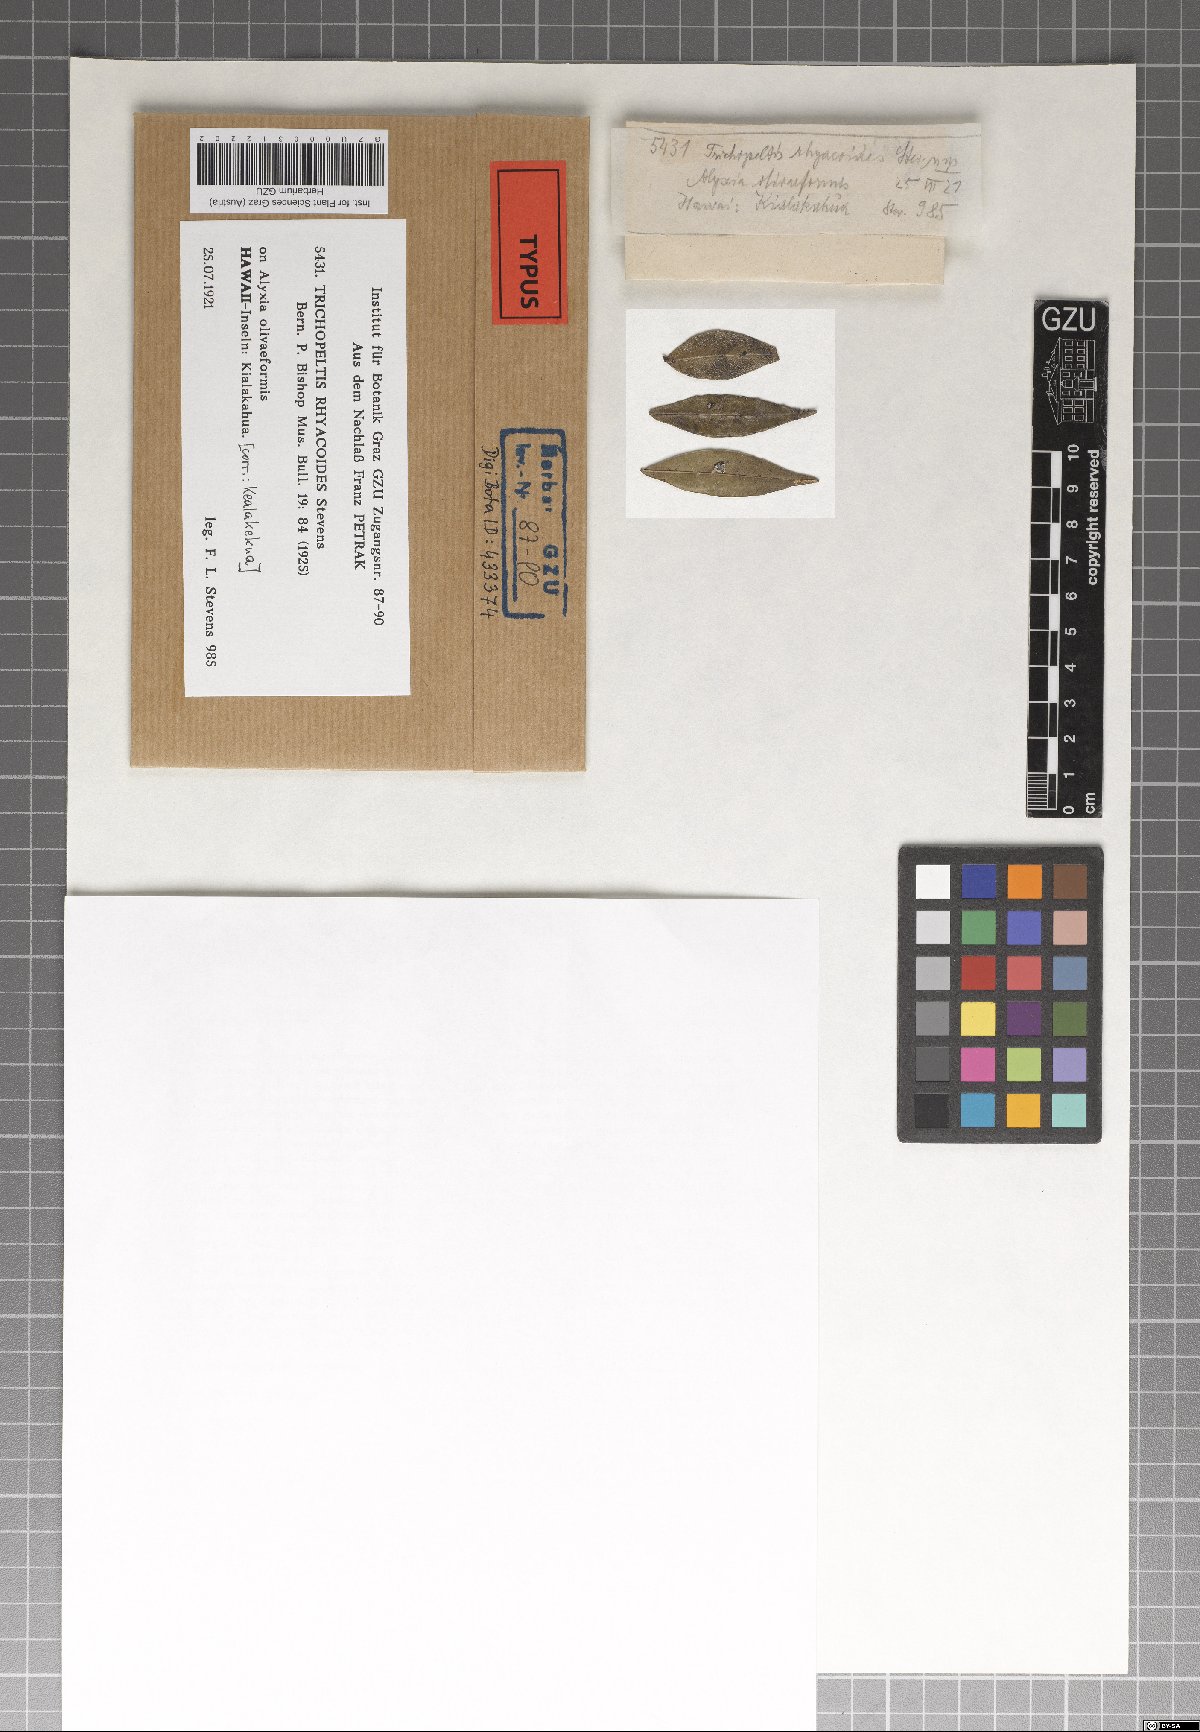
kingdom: Fungi
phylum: Ascomycota
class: Dothideomycetes
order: Microthyriales
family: Trichothyriaceae
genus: Trichopeltis
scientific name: Trichopeltis rhyacoides
